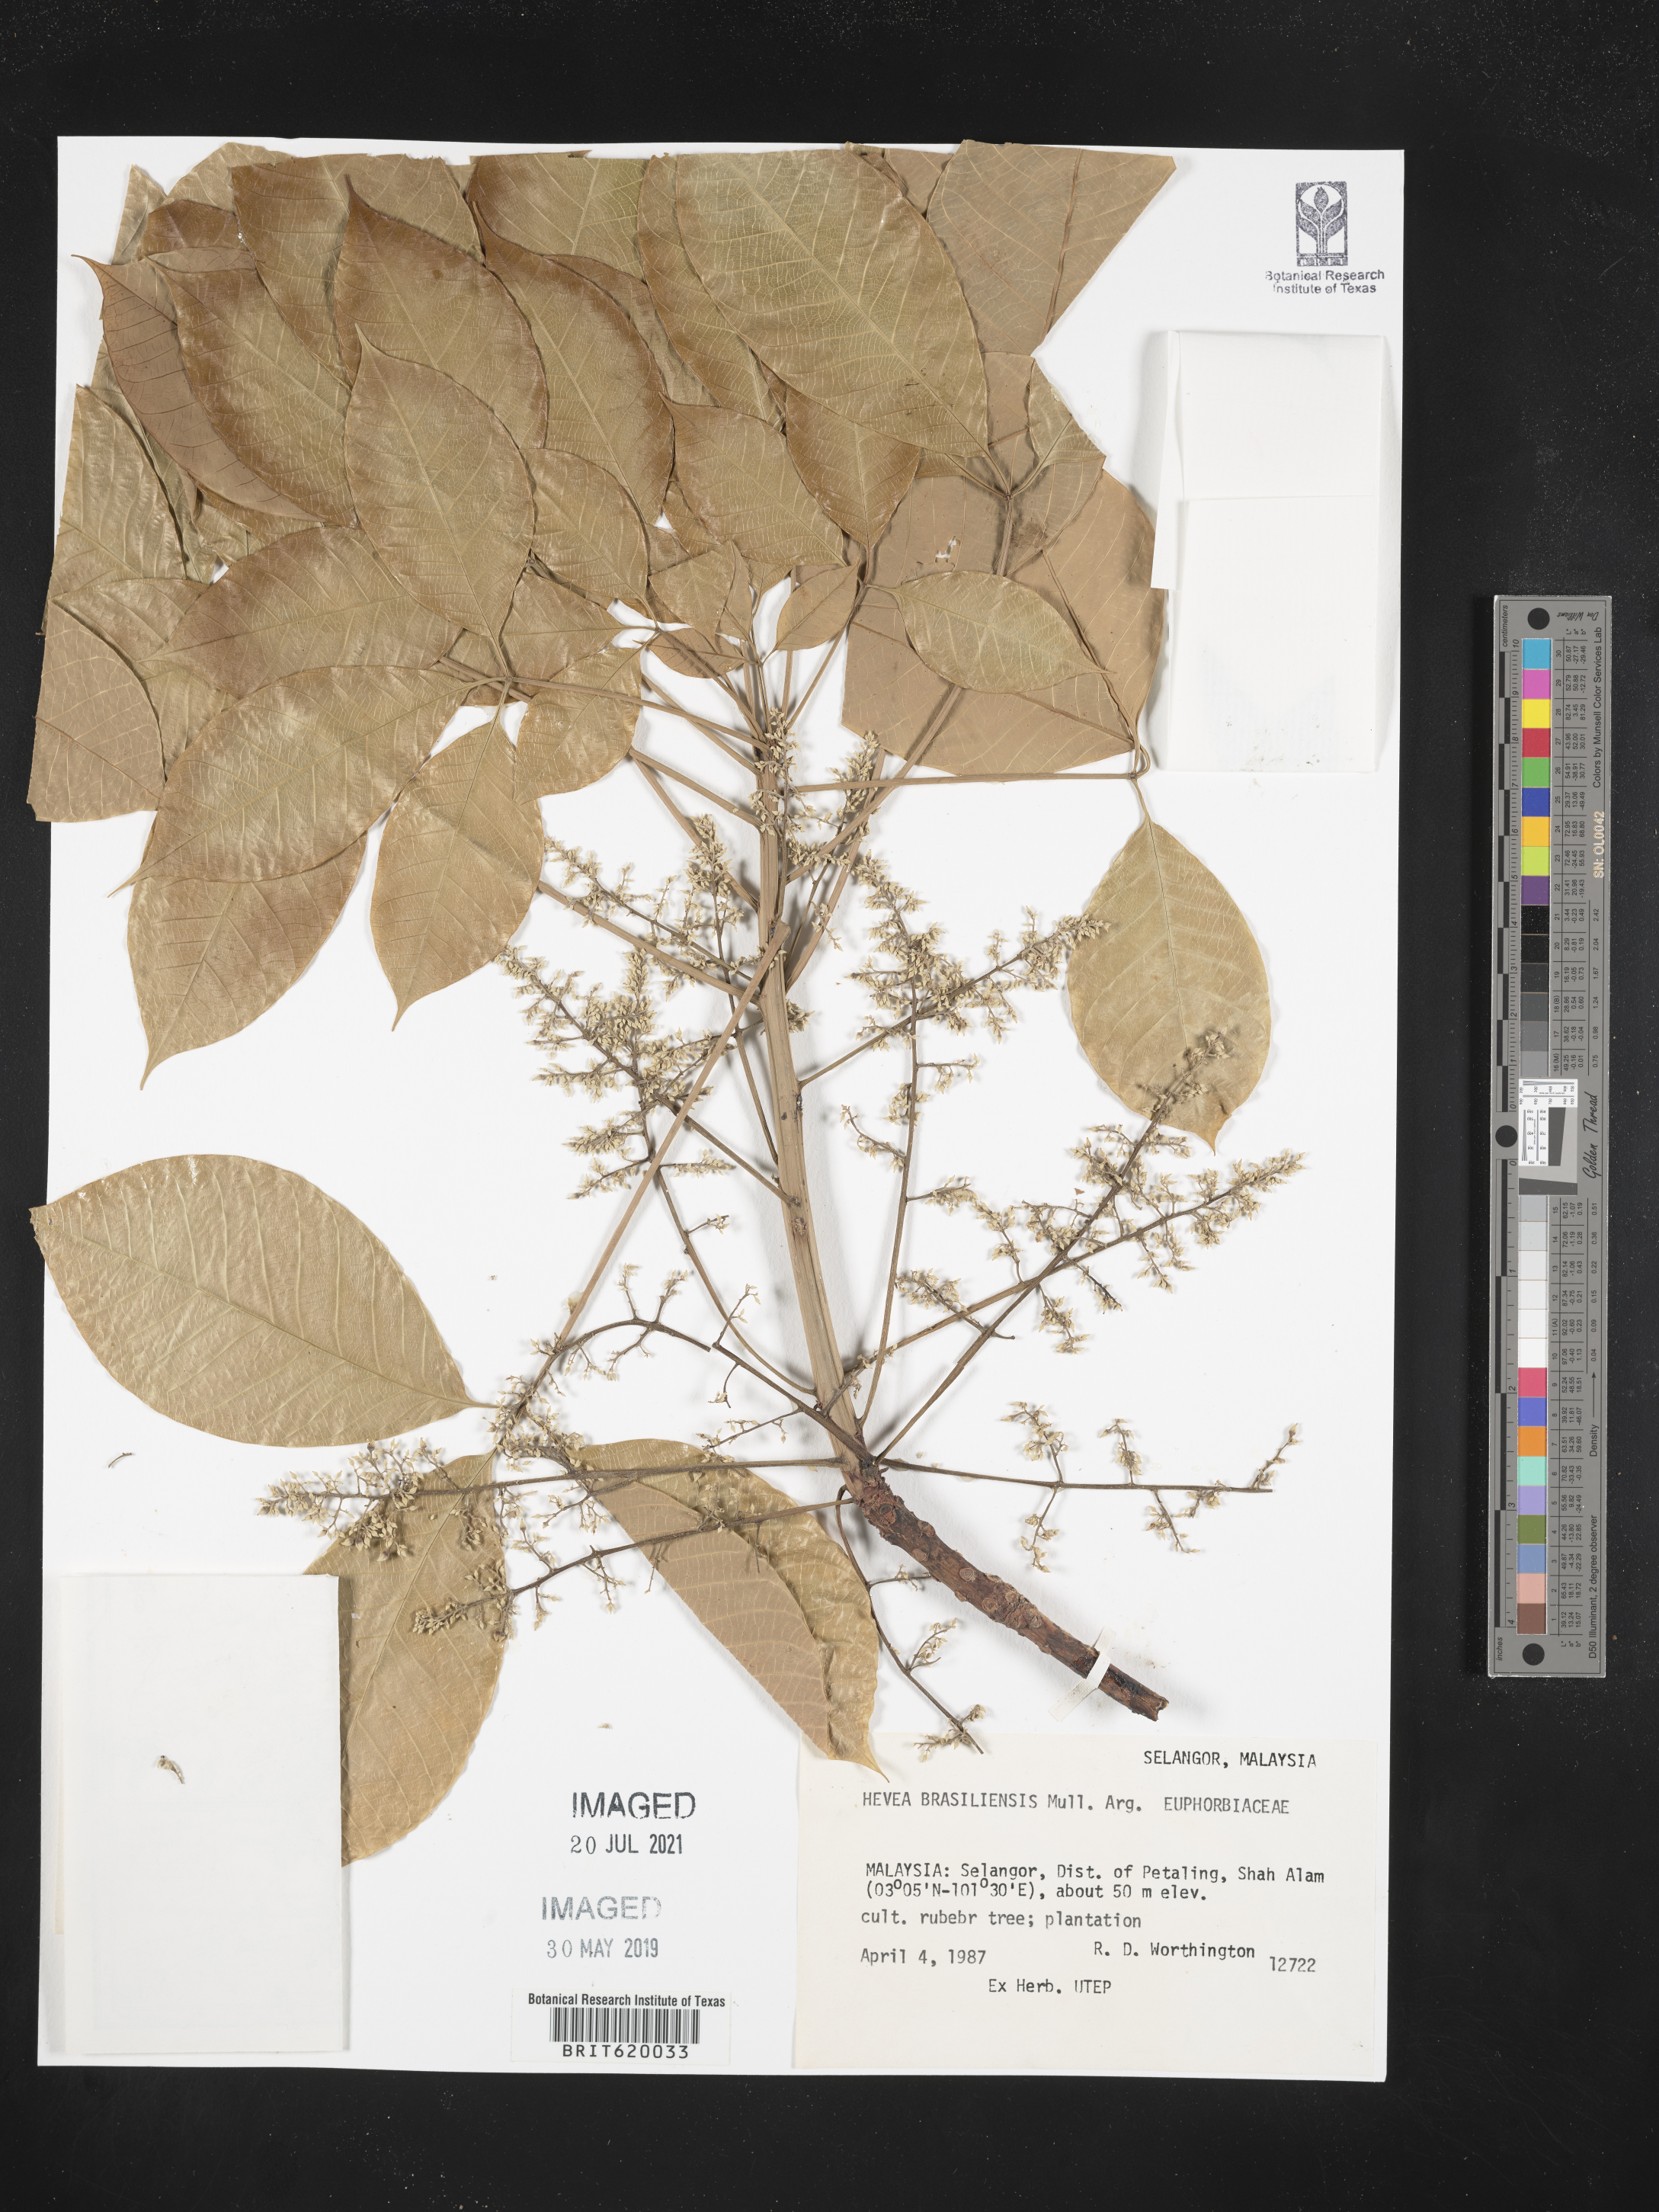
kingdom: Plantae
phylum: Tracheophyta
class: Magnoliopsida
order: Malpighiales
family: Euphorbiaceae
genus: Hevea
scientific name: Hevea brasiliensis
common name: Natural rubber
